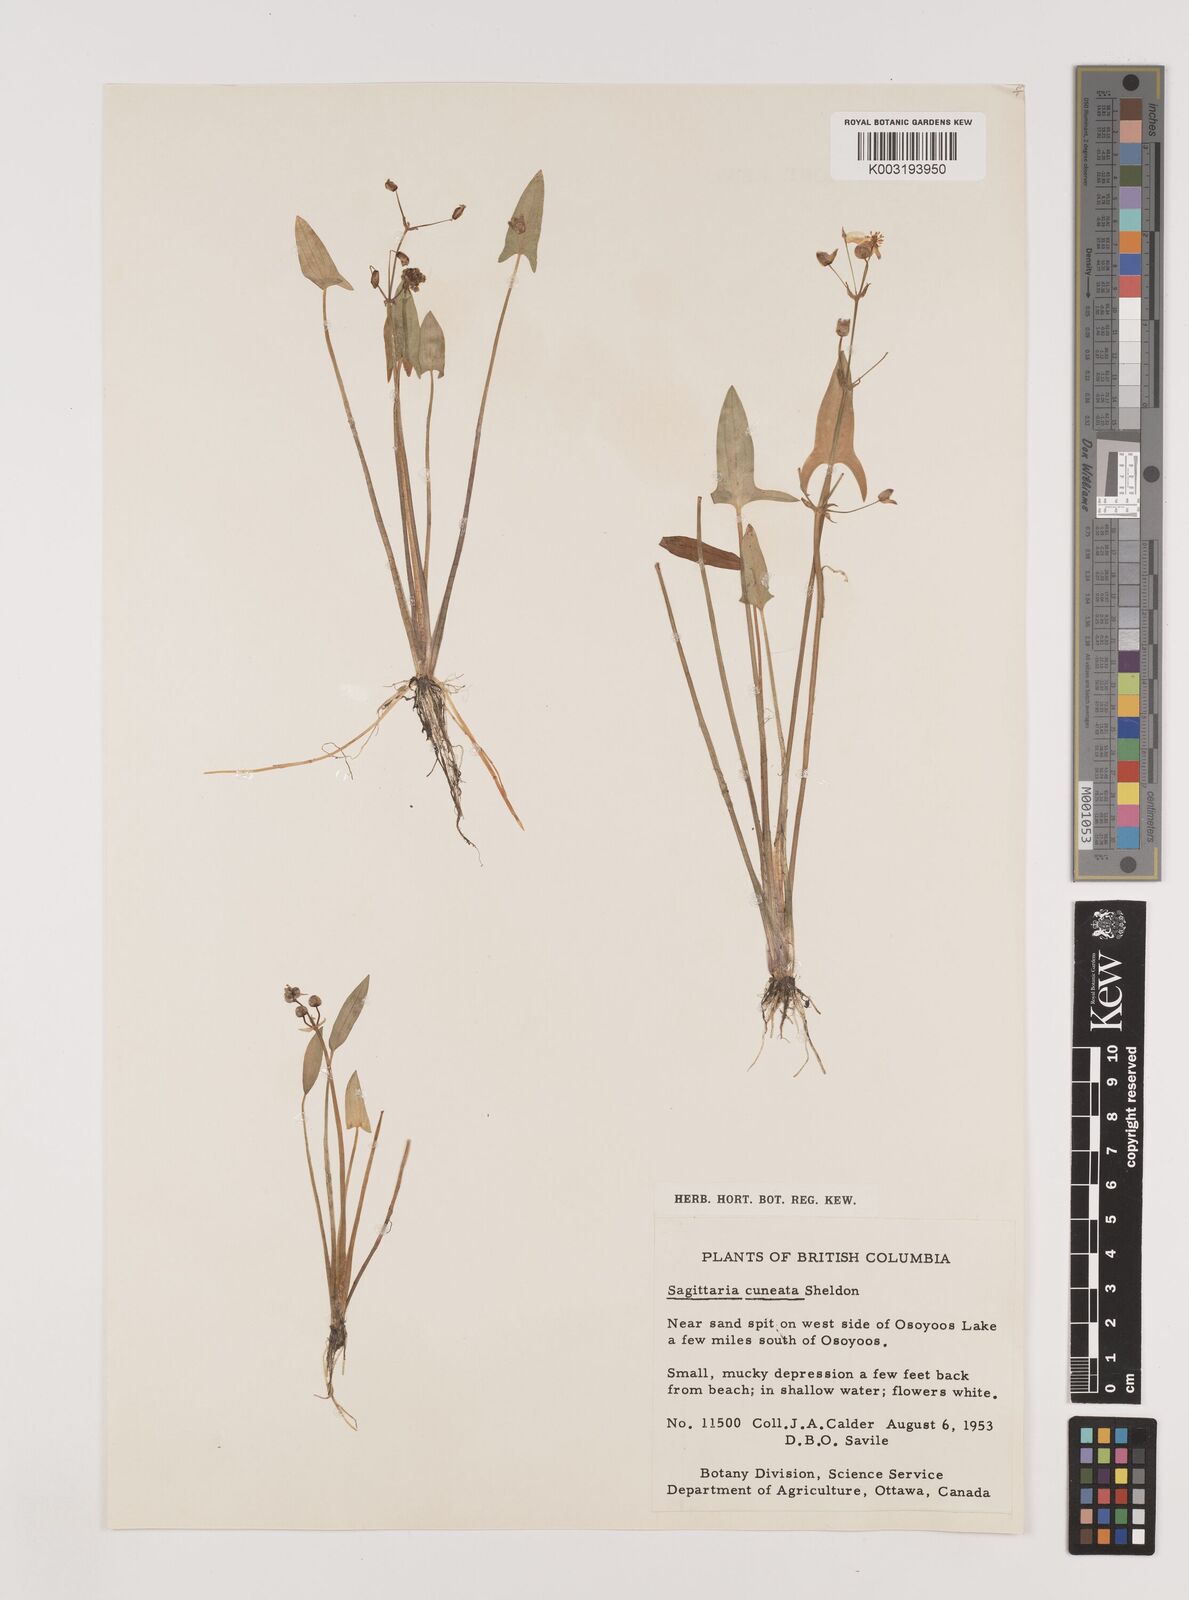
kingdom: Plantae
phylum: Tracheophyta
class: Liliopsida
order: Alismatales
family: Alismataceae
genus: Sagittaria
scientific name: Sagittaria cuneata
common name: Northern arrowhead
